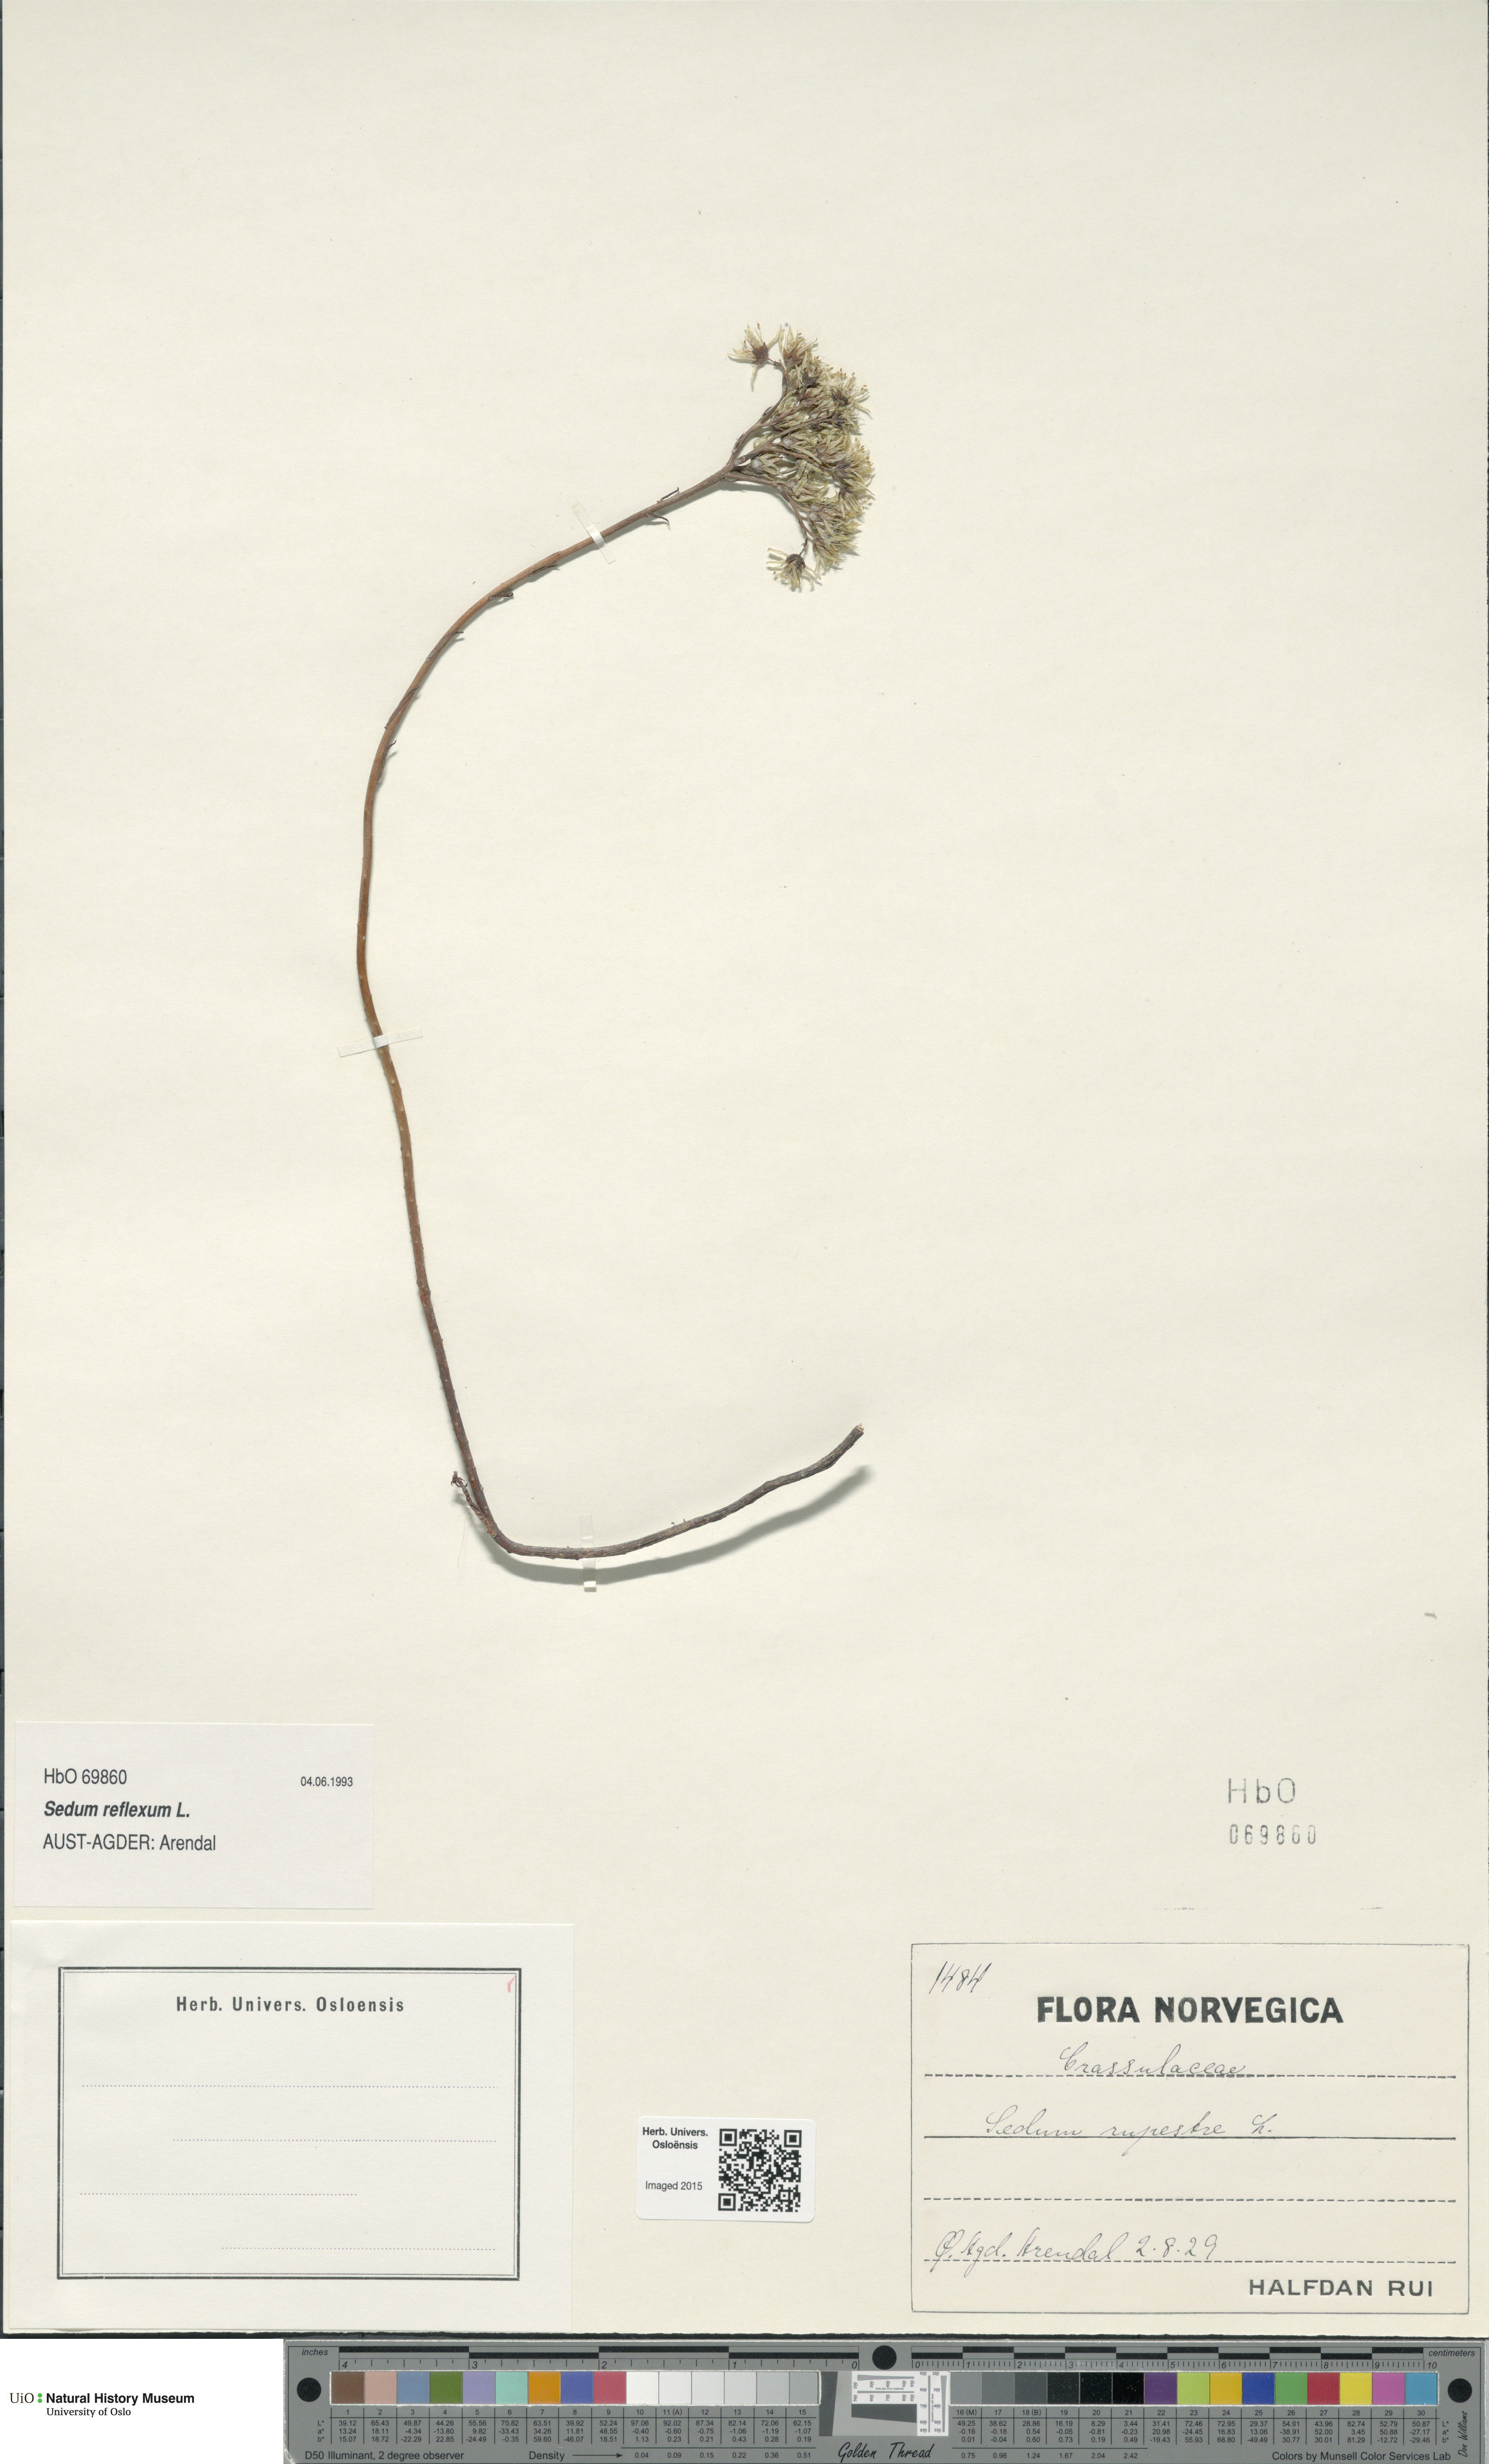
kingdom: Plantae
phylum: Tracheophyta
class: Magnoliopsida
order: Saxifragales
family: Crassulaceae
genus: Petrosedum
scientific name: Petrosedum rupestre
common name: Jenny's stonecrop
